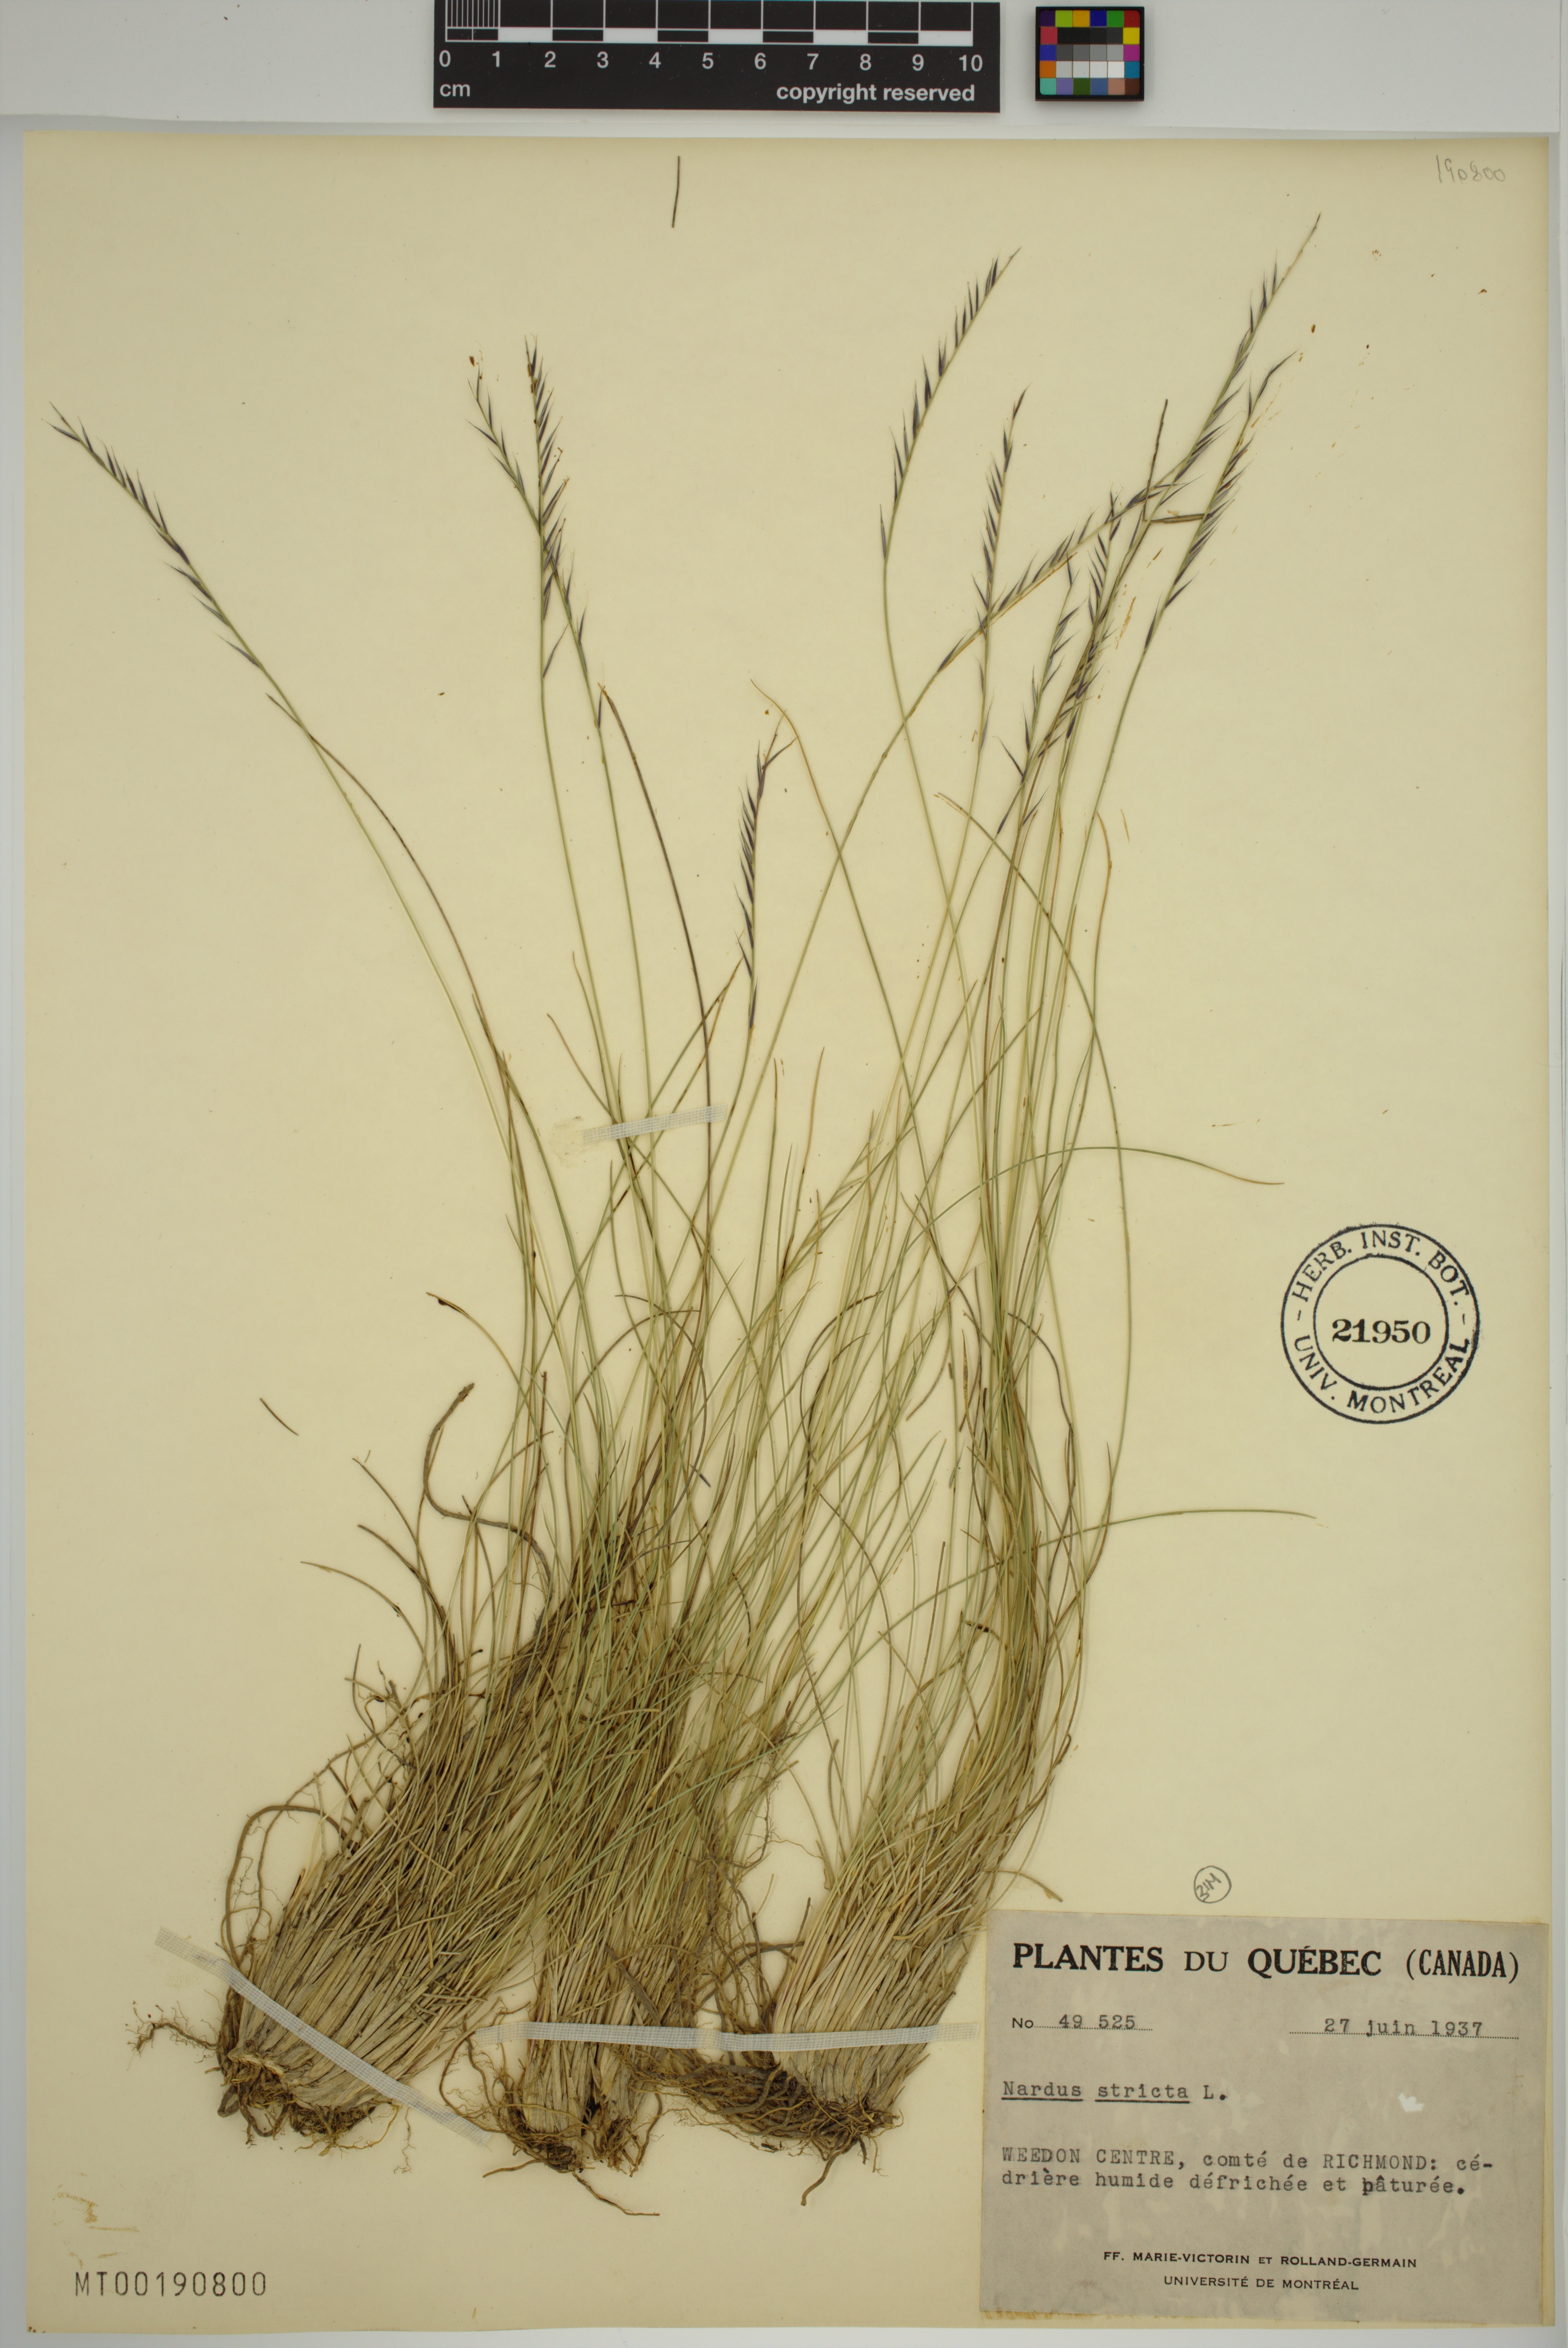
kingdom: Plantae
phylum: Tracheophyta
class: Liliopsida
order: Poales
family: Poaceae
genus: Nardus
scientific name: Nardus stricta
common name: Mat-grass
